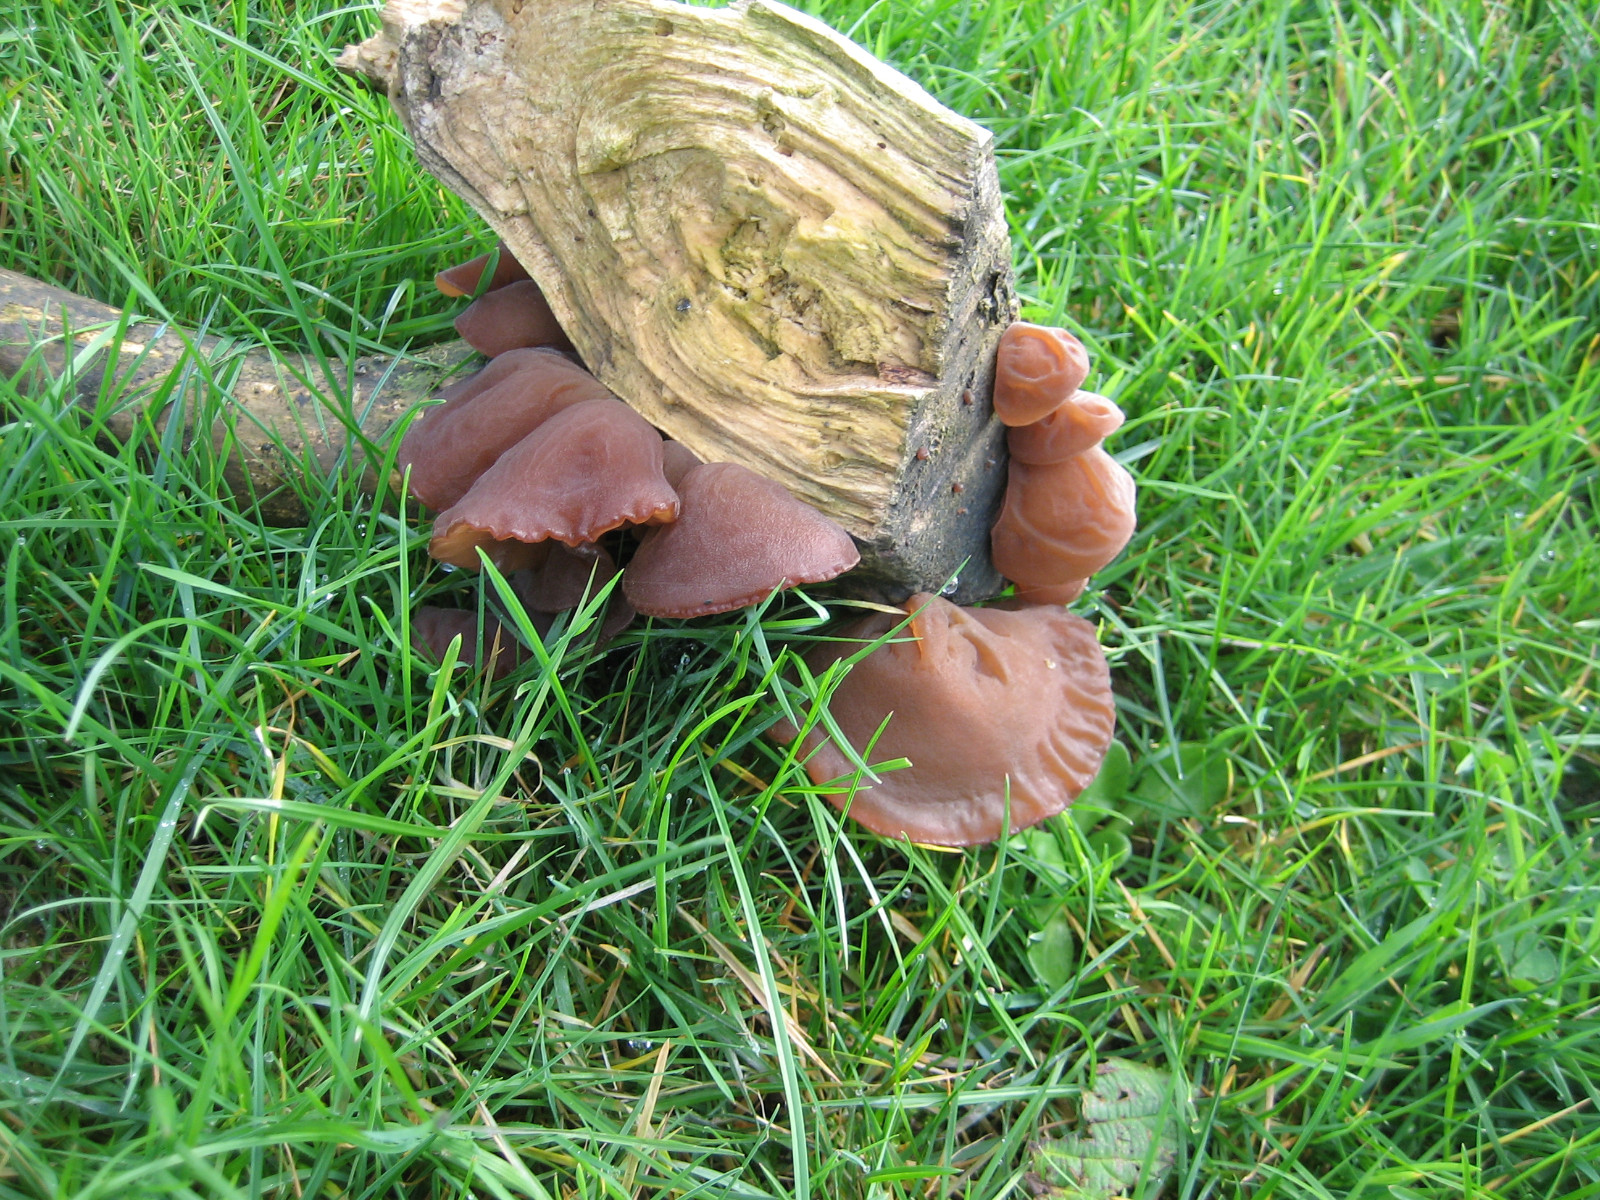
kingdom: Fungi
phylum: Basidiomycota
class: Agaricomycetes
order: Auriculariales
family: Auriculariaceae
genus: Auricularia
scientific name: Auricularia auricula-judae
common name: almindelig judasøre
